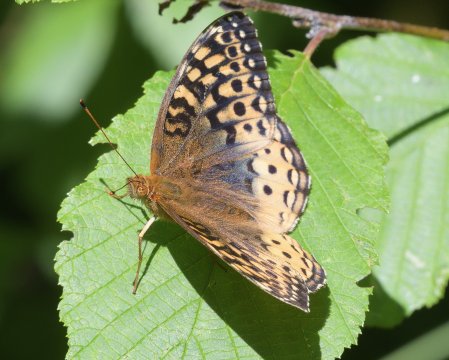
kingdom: Animalia
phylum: Arthropoda
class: Insecta
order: Lepidoptera
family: Nymphalidae
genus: Speyeria
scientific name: Speyeria cybele
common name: Great Spangled Fritillary
